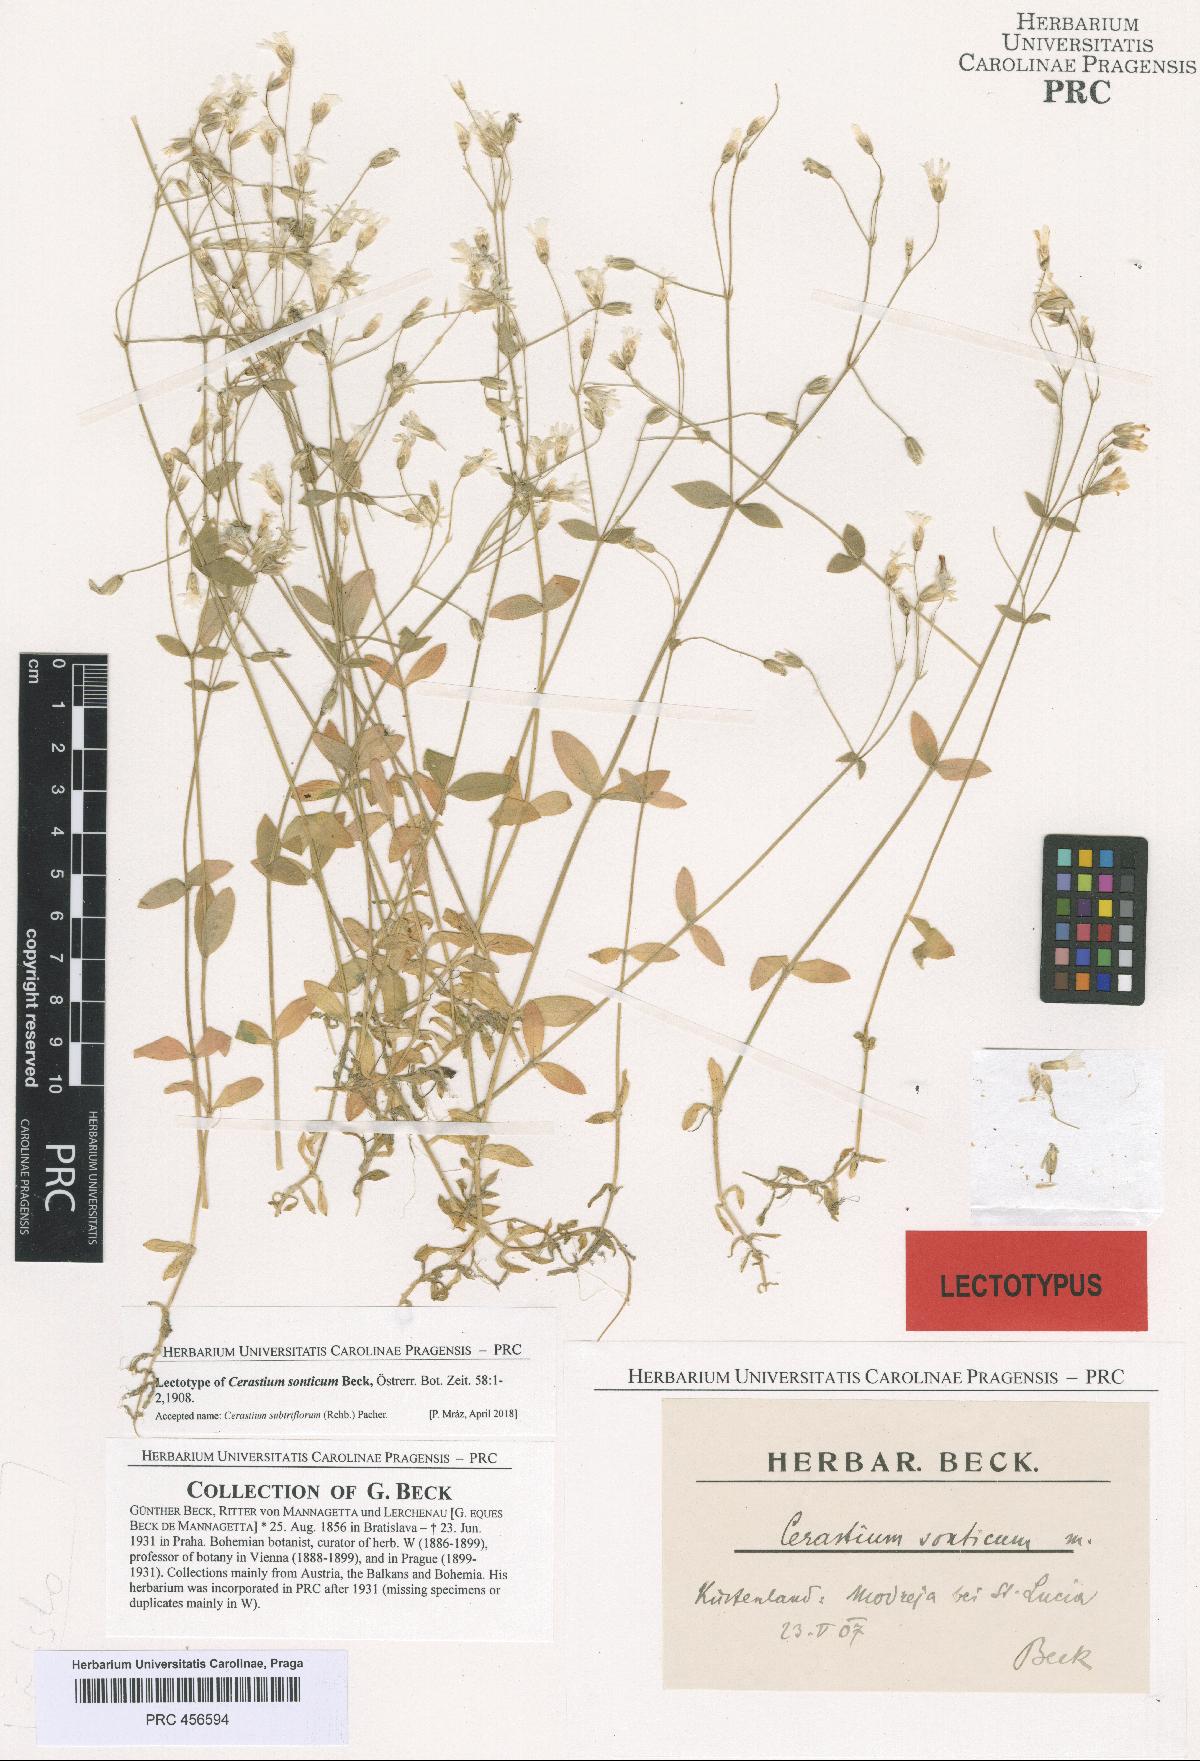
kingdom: Plantae
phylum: Tracheophyta
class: Magnoliopsida
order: Caryophyllales
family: Caryophyllaceae
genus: Cerastium
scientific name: Cerastium subtriflorum
